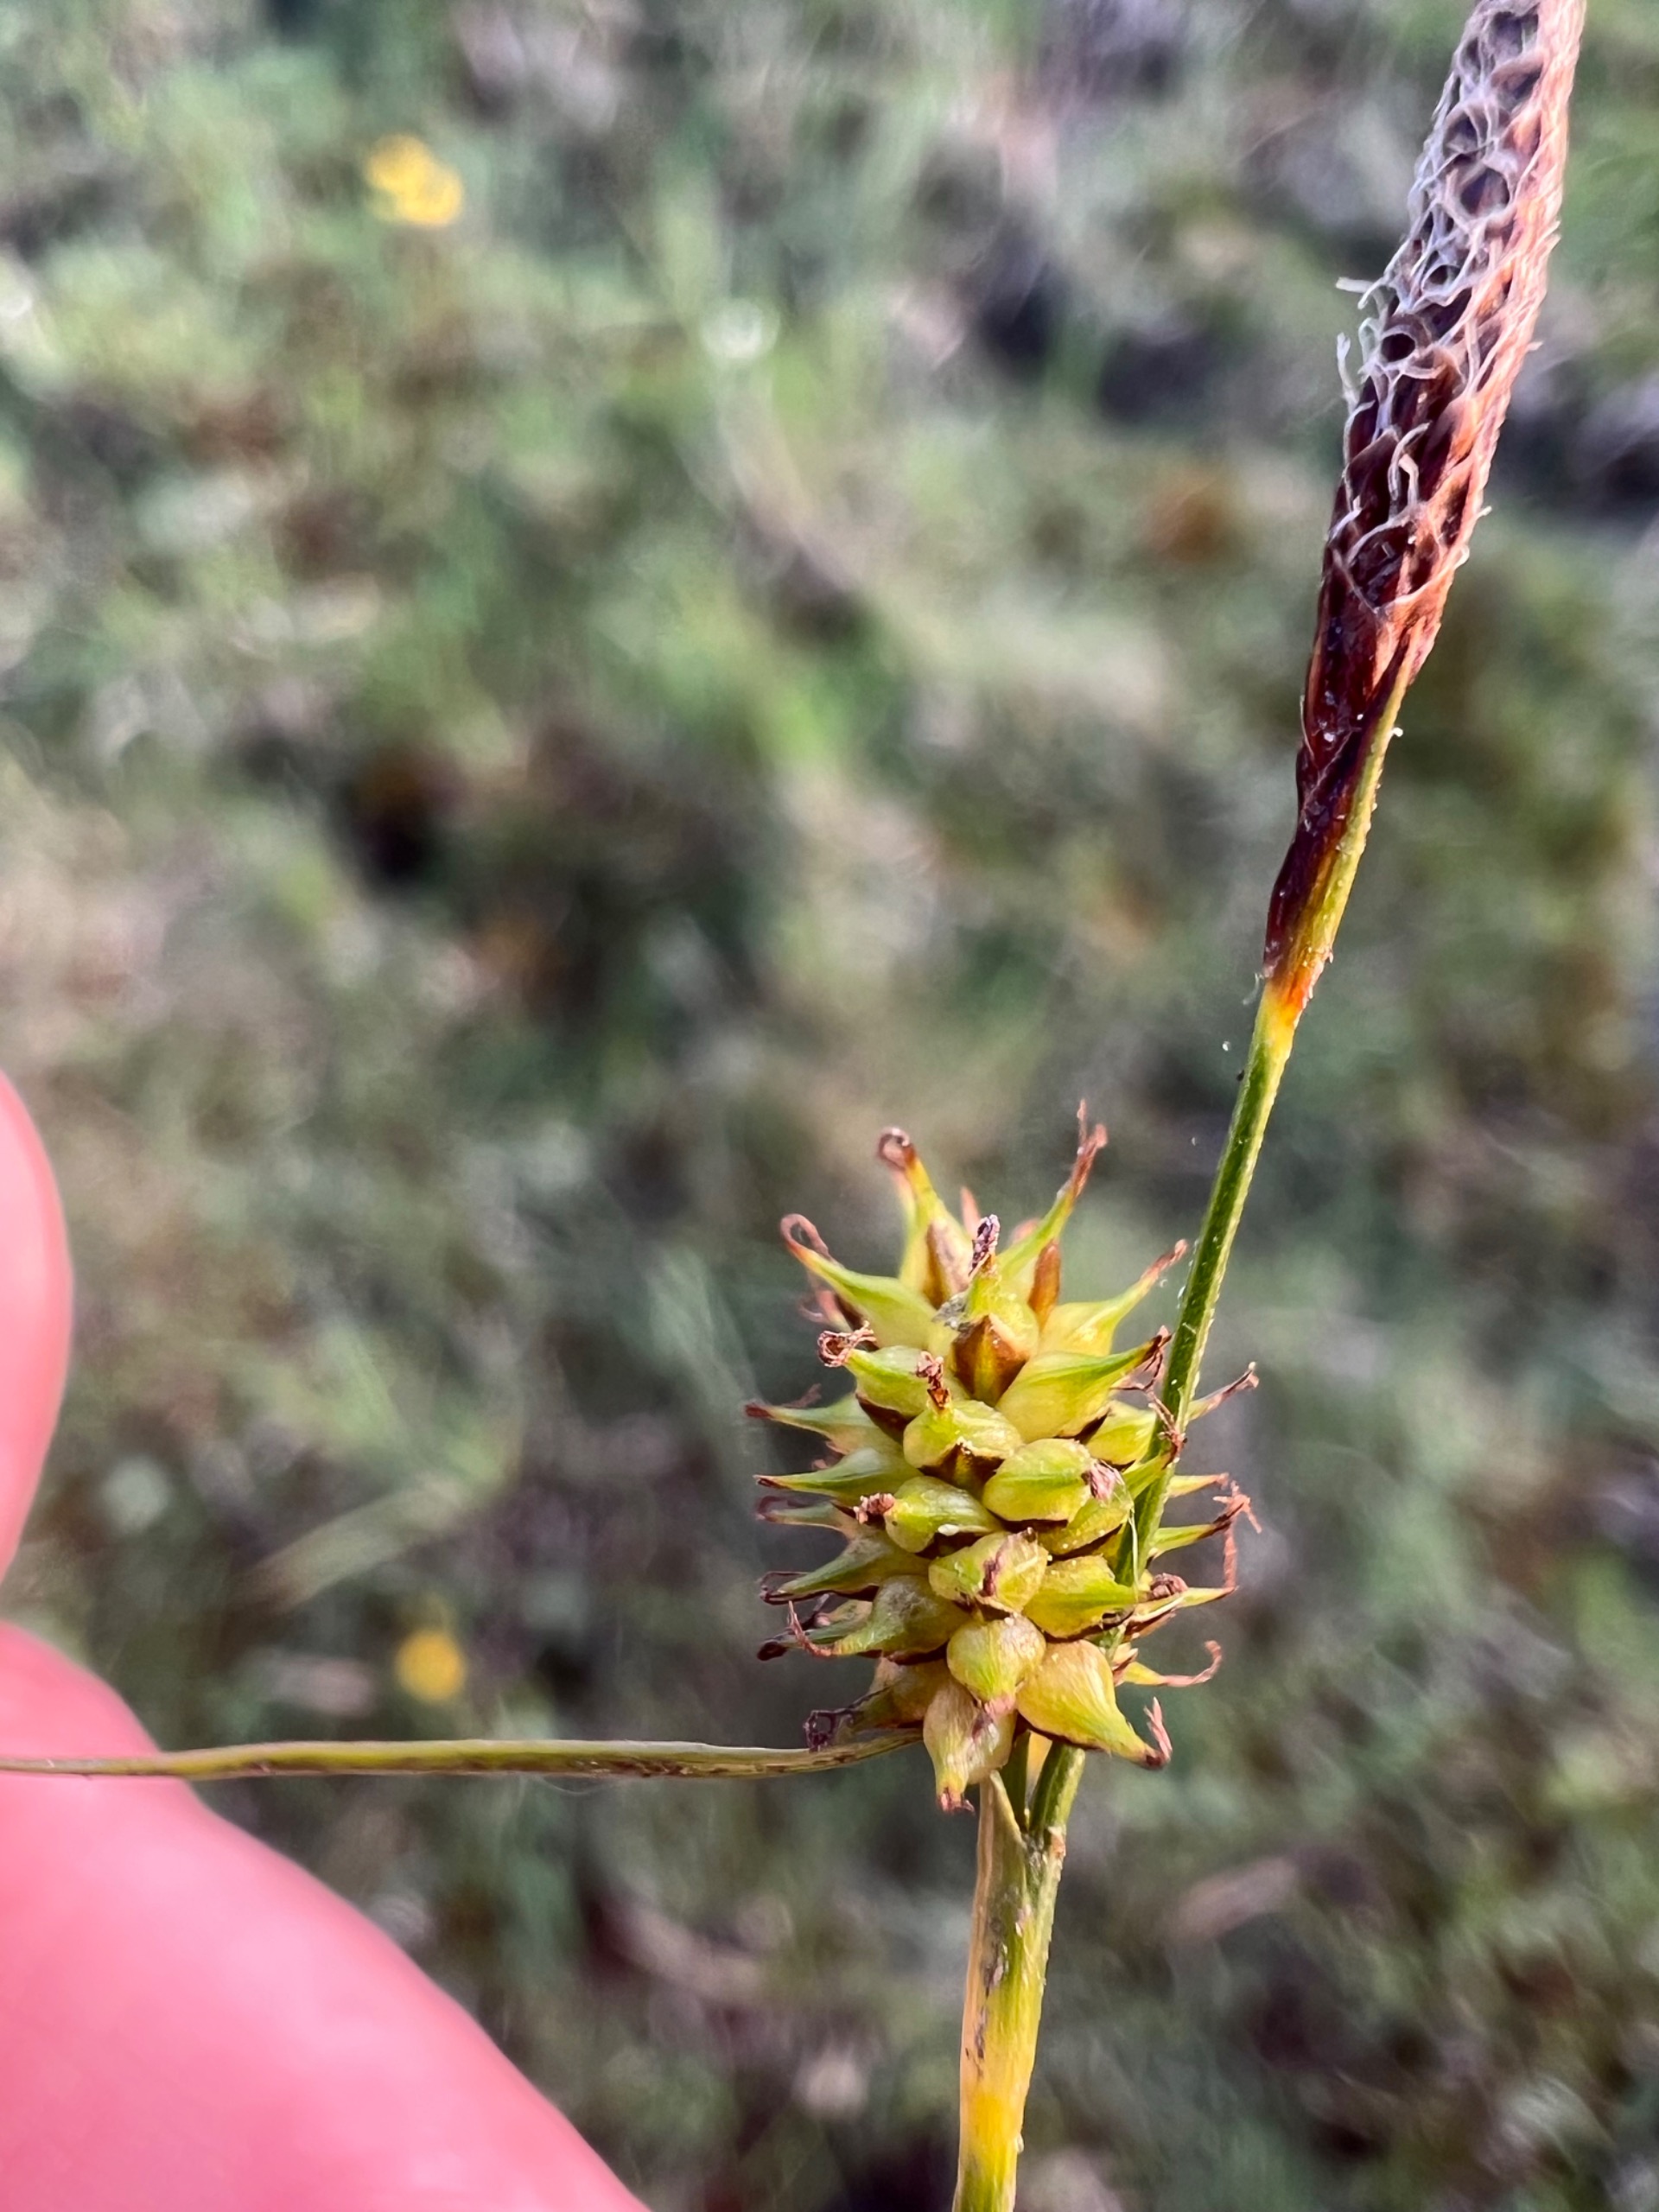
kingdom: Plantae
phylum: Tracheophyta
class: Liliopsida
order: Poales
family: Cyperaceae
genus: Carex
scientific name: Carex lepidocarpa
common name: Krognæb-star
